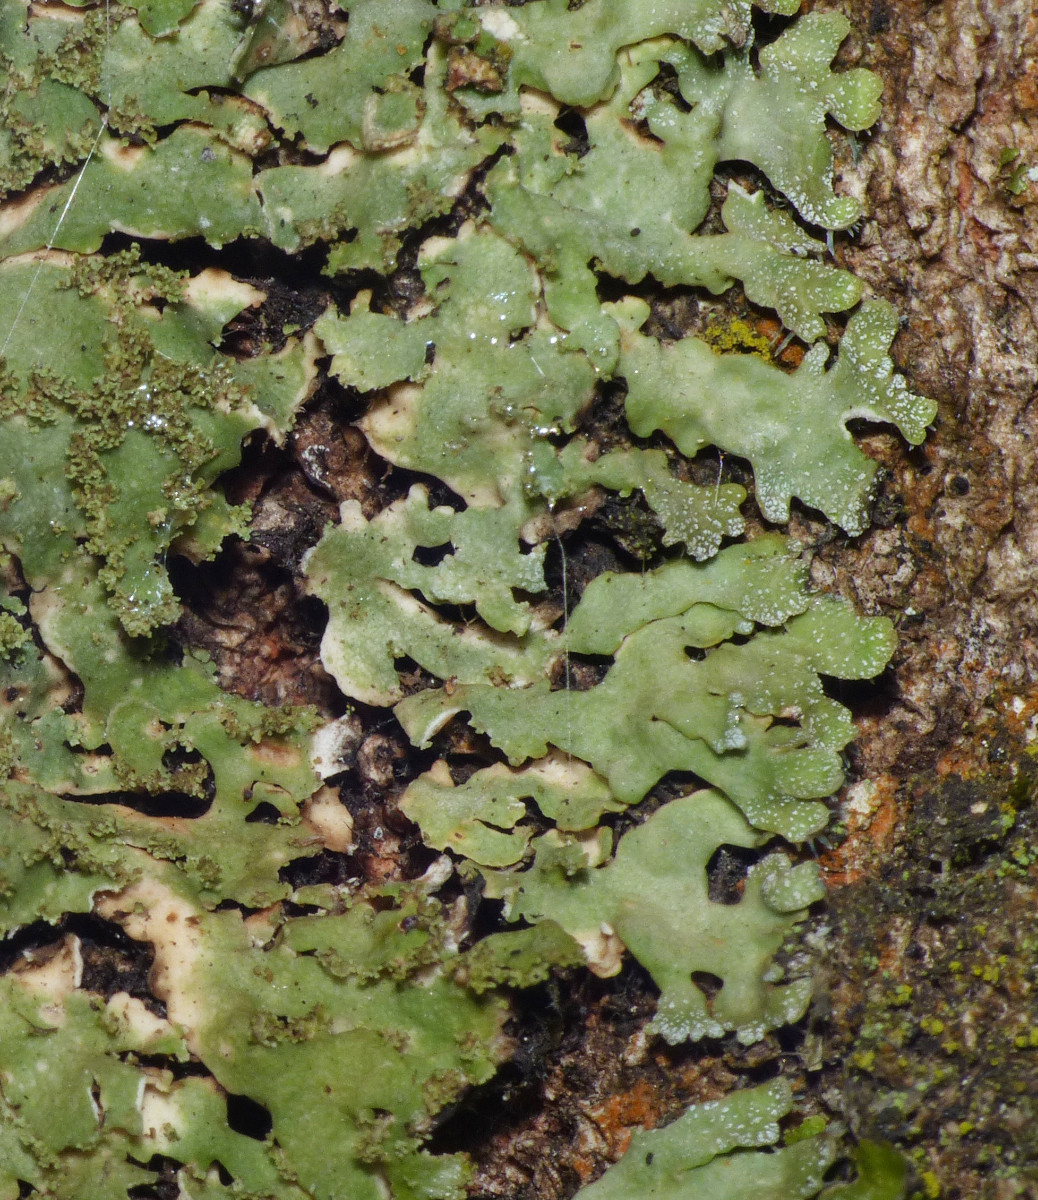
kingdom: Fungi
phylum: Ascomycota
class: Lecanoromycetes
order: Caliciales
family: Physciaceae
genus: Physconia
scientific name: Physconia perisidiosa
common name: liden dugrosetlav
